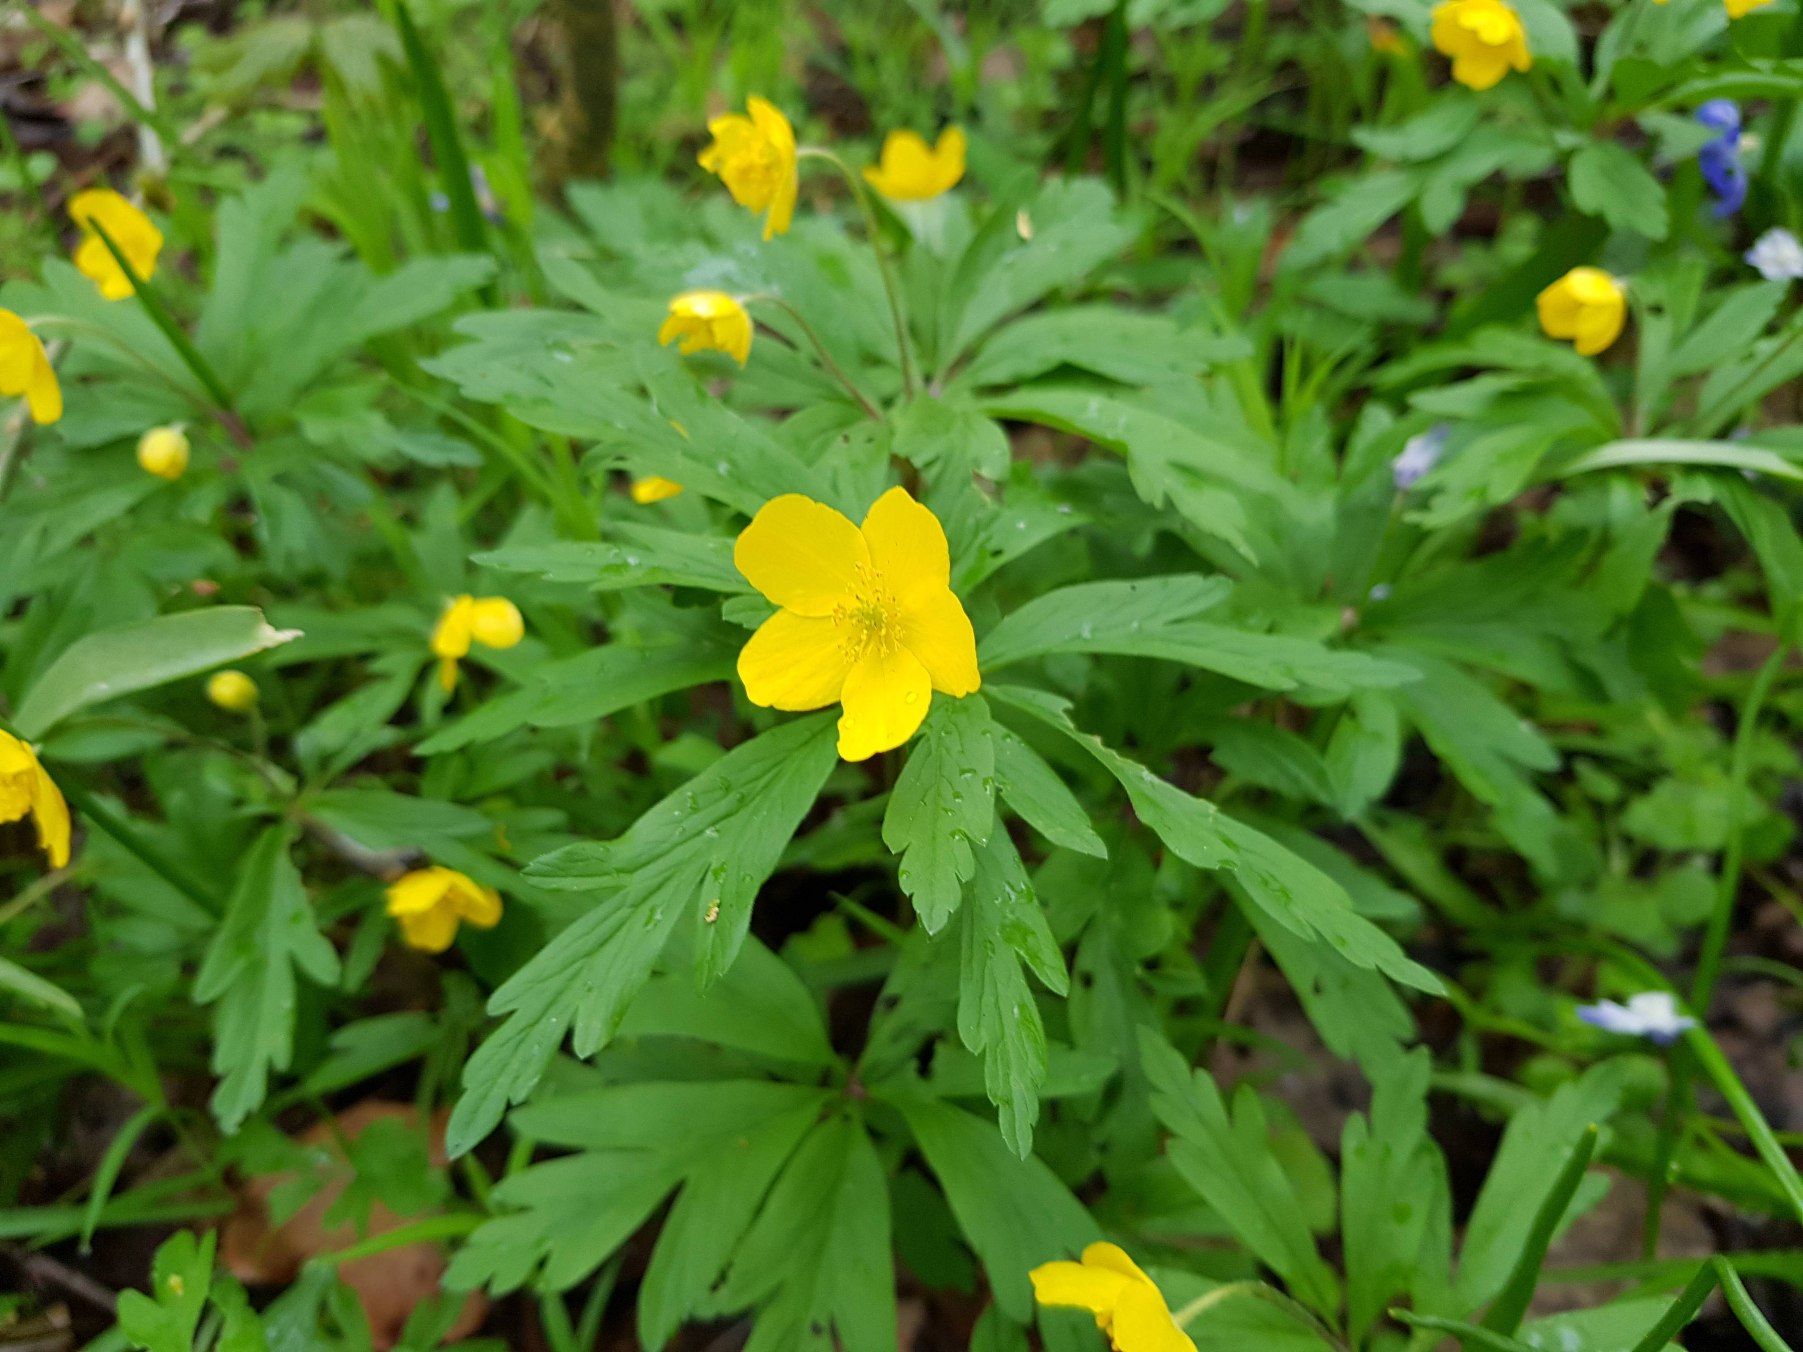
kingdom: Plantae
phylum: Tracheophyta
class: Magnoliopsida
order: Ranunculales
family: Ranunculaceae
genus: Anemone
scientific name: Anemone ranunculoides
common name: Gul anemone
